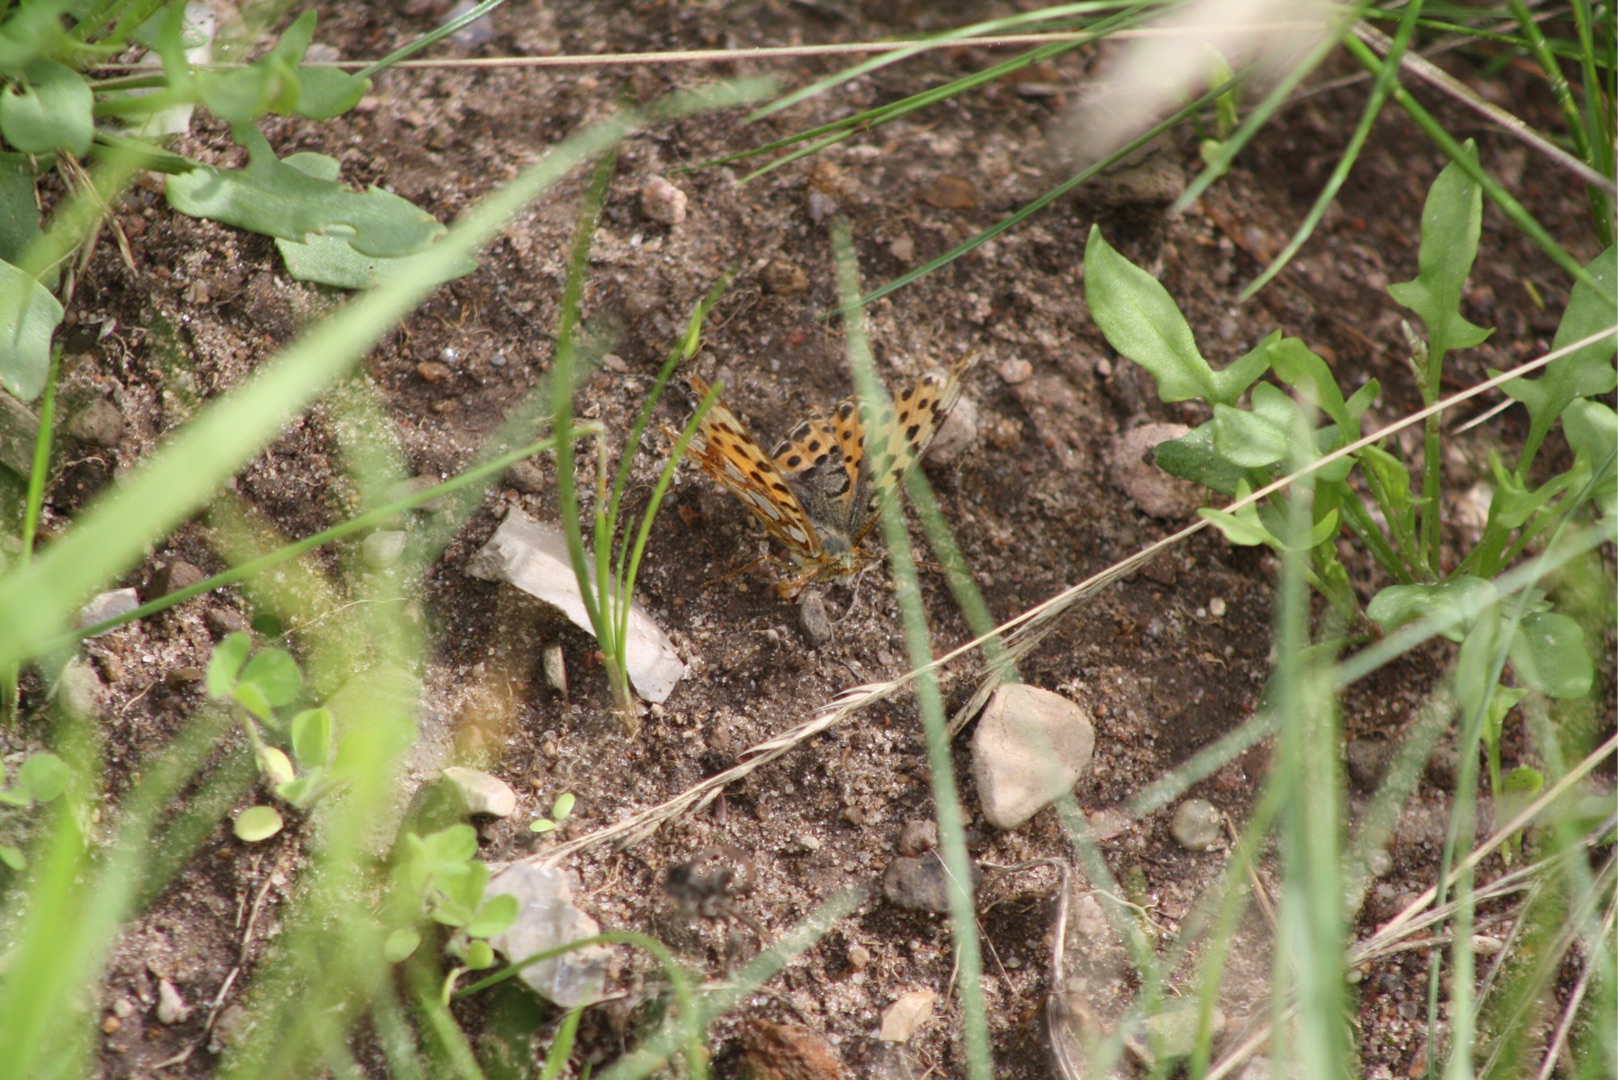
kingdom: Animalia
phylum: Arthropoda
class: Insecta
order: Lepidoptera
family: Nymphalidae
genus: Issoria
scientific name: Issoria lathonia
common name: Storplettet perlemorsommerfugl
